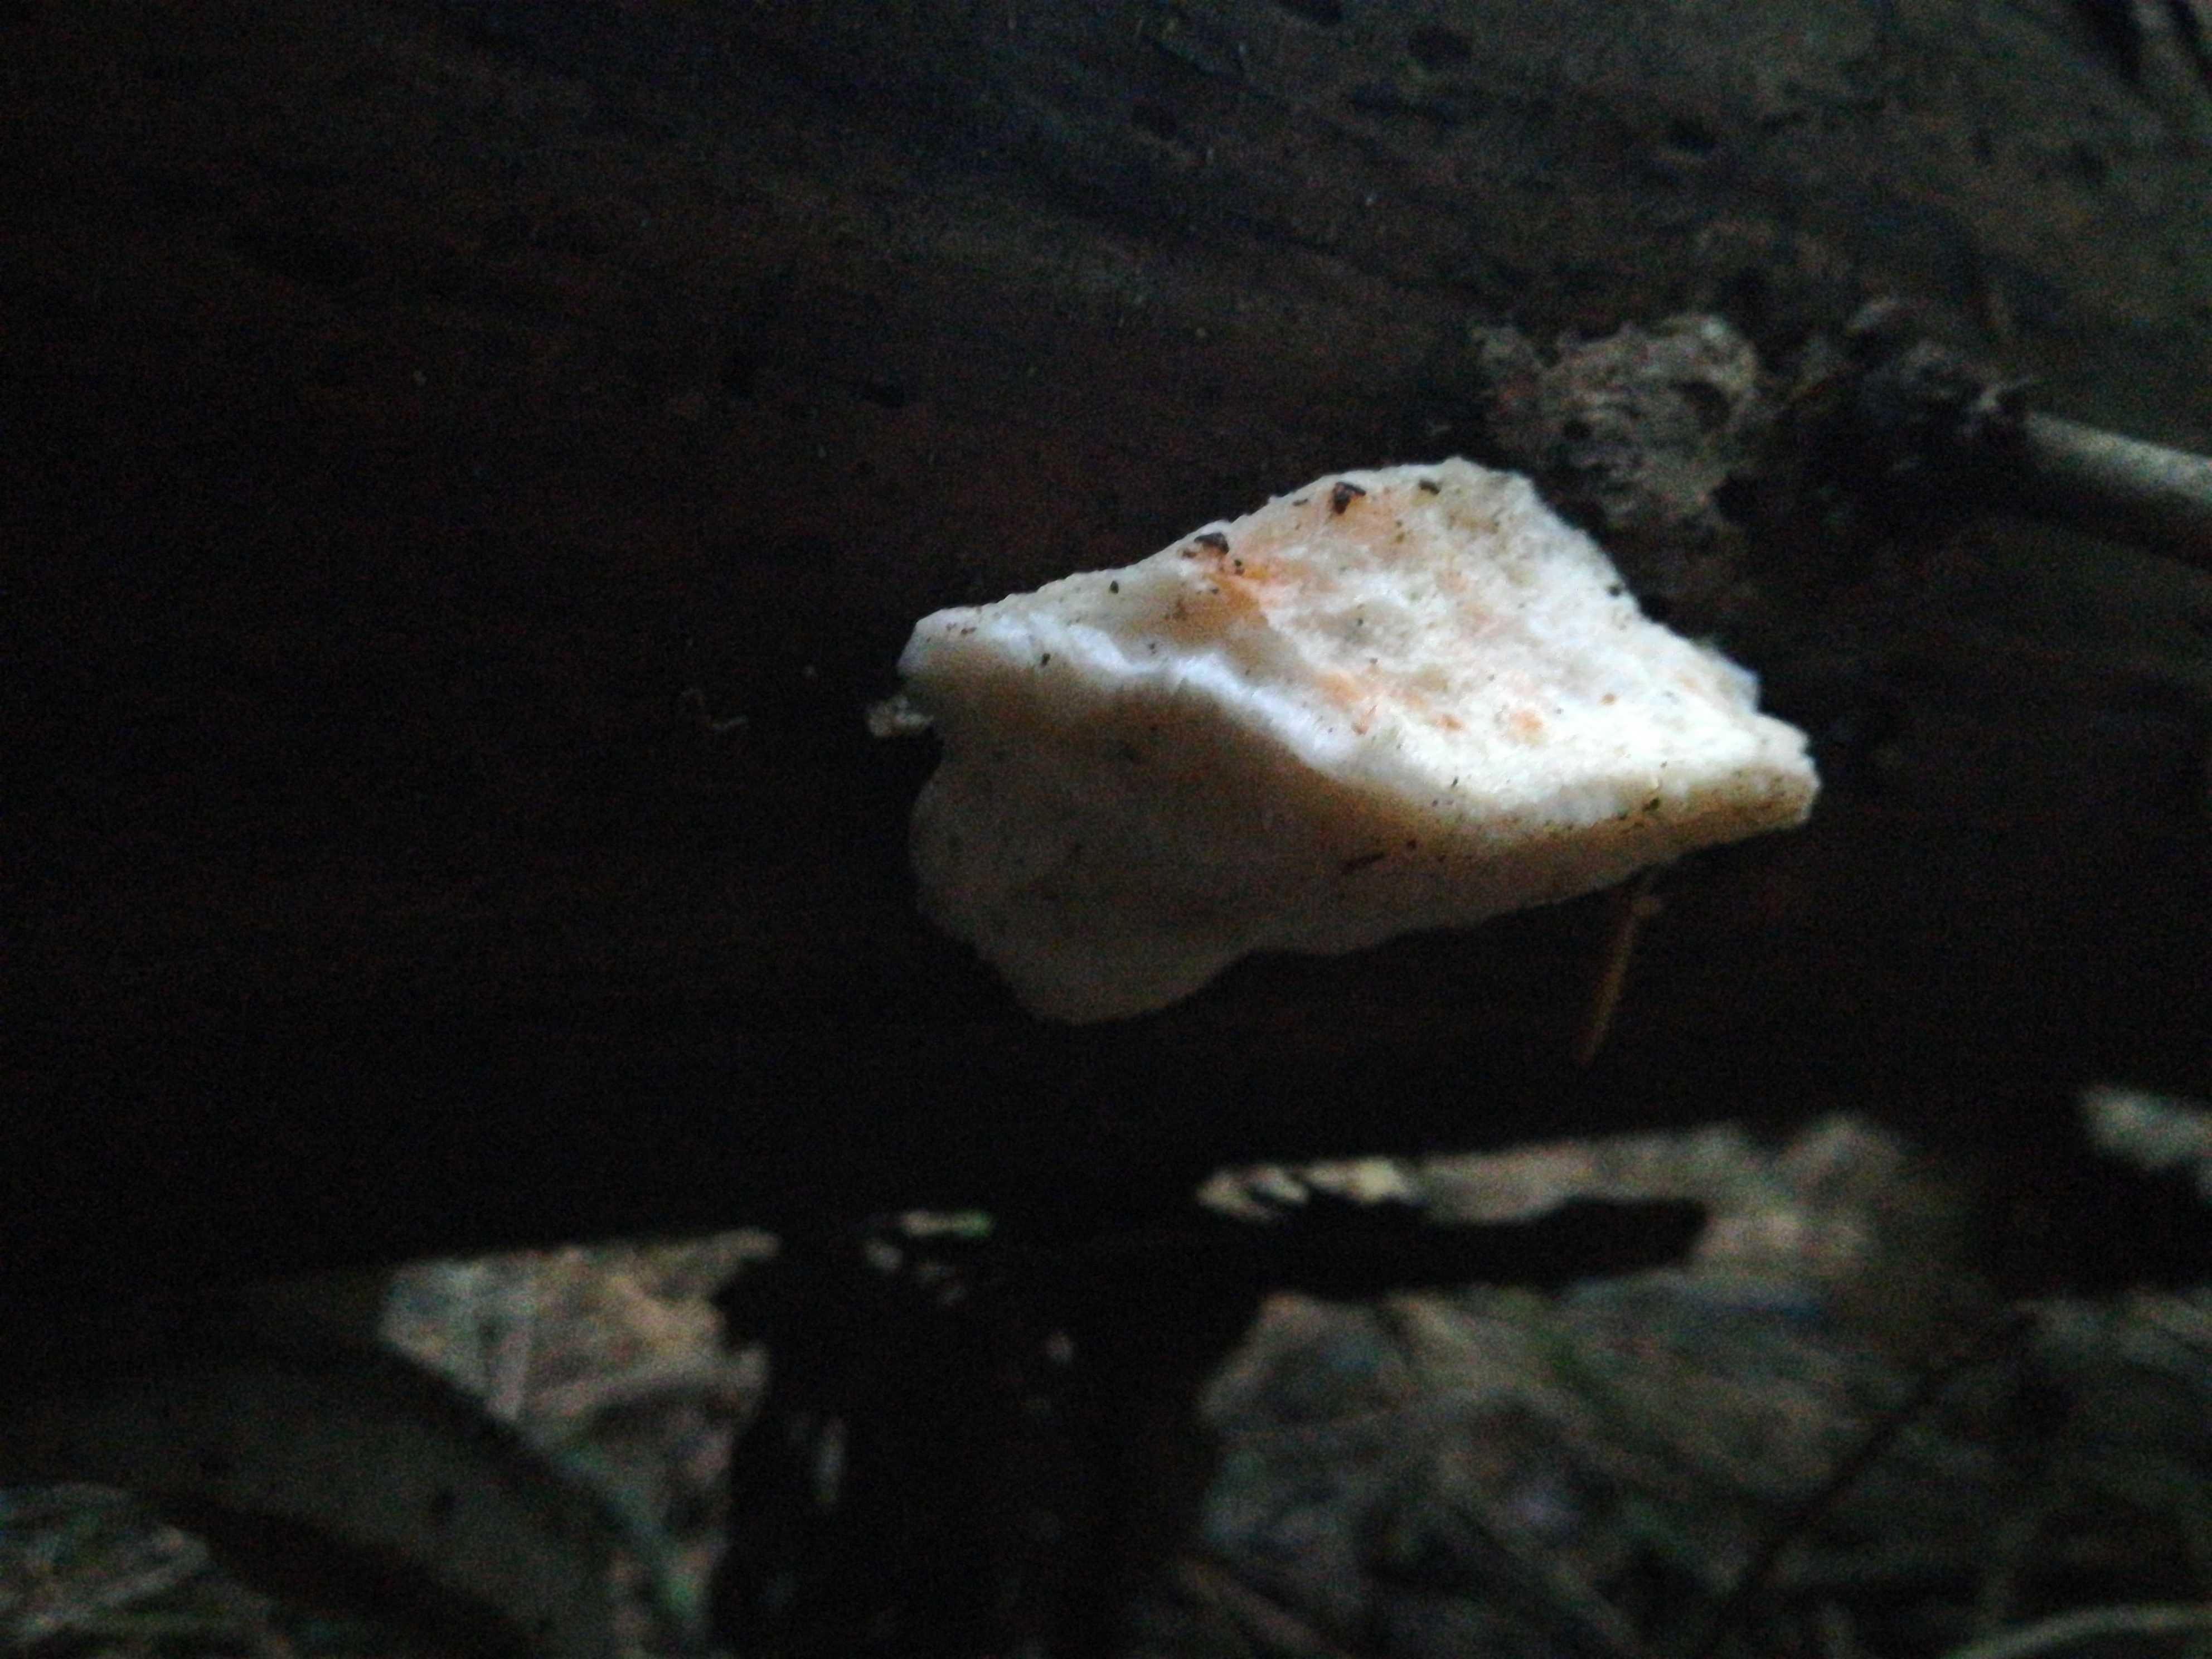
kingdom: Fungi
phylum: Basidiomycota
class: Agaricomycetes
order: Polyporales
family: Dacryobolaceae
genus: Postia
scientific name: Postia
